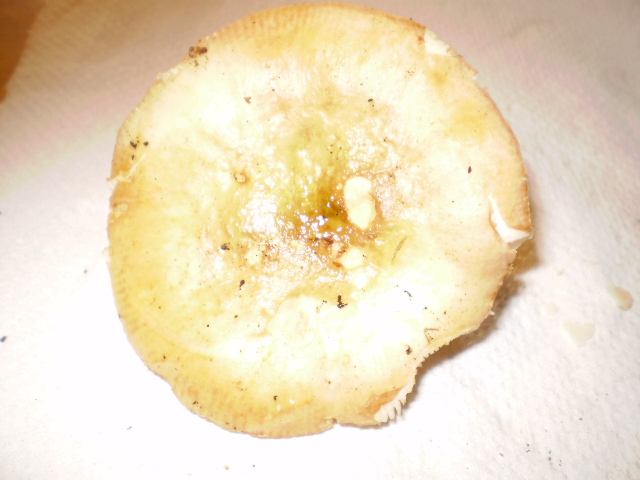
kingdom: Fungi
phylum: Basidiomycota
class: Agaricomycetes
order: Russulales
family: Russulaceae
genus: Russula
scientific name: Russula depallens
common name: falmende skørhat
